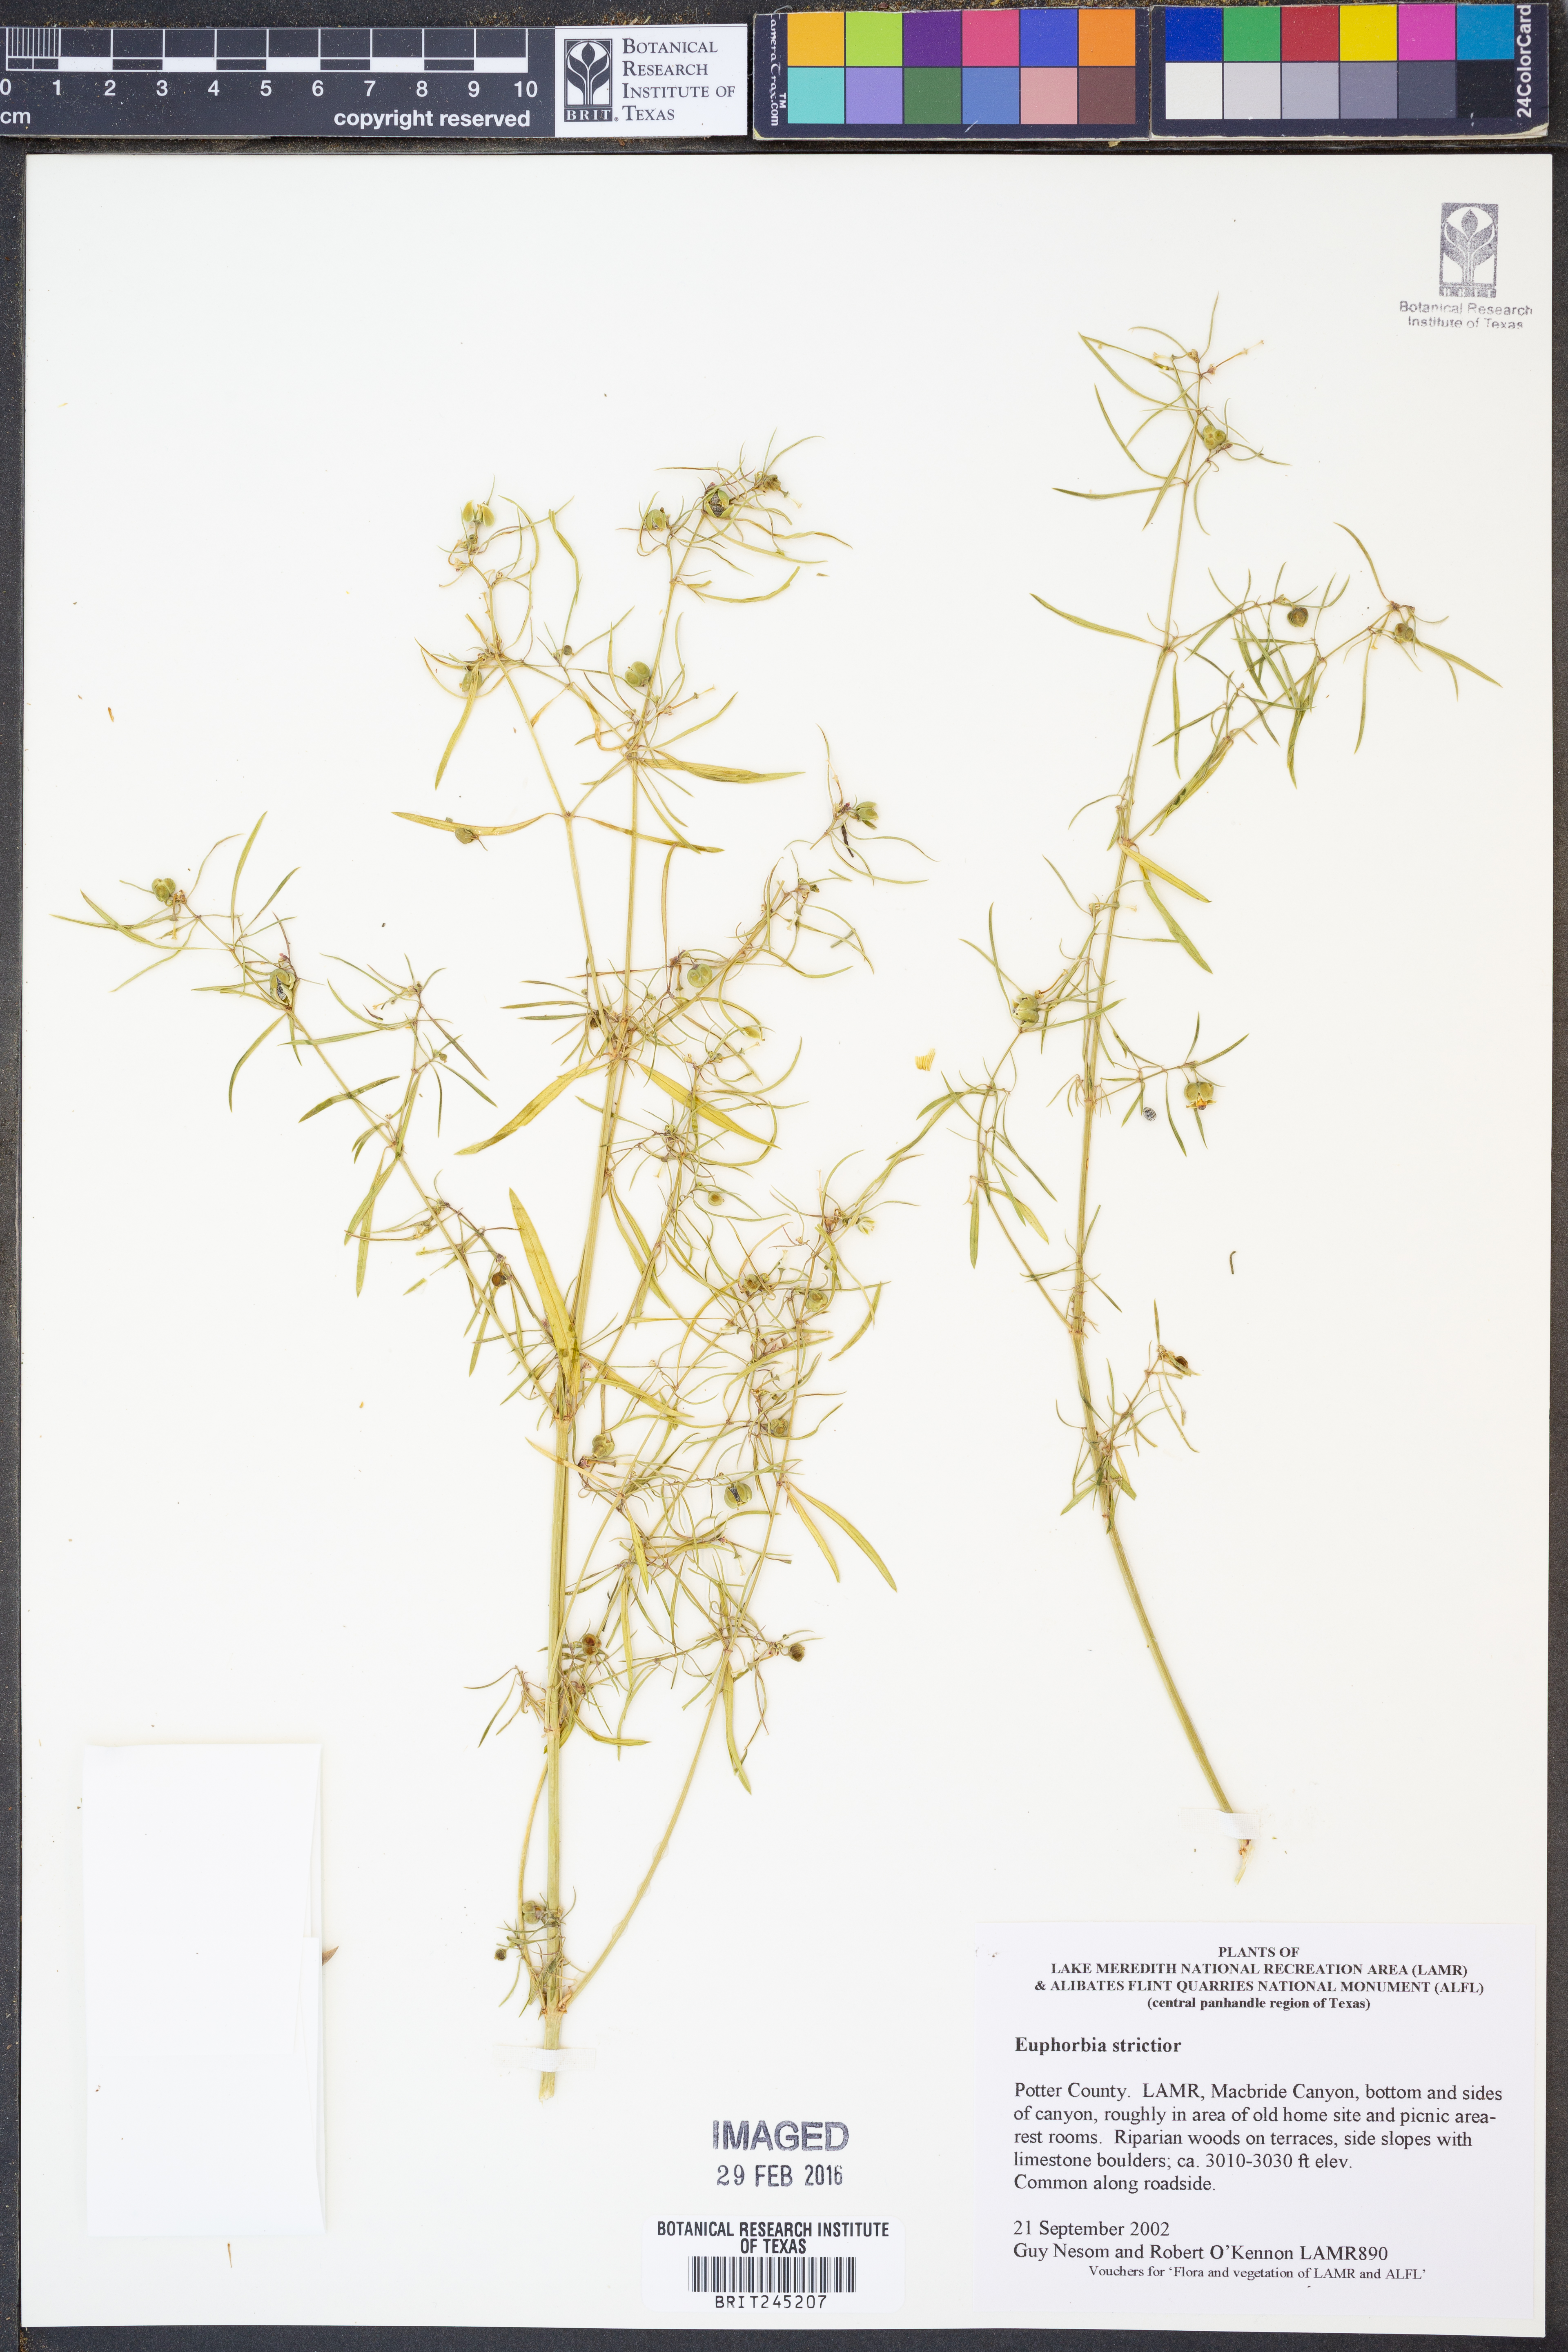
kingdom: Plantae
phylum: Tracheophyta
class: Magnoliopsida
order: Malpighiales
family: Euphorbiaceae
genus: Euphorbia
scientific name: Euphorbia strictior
